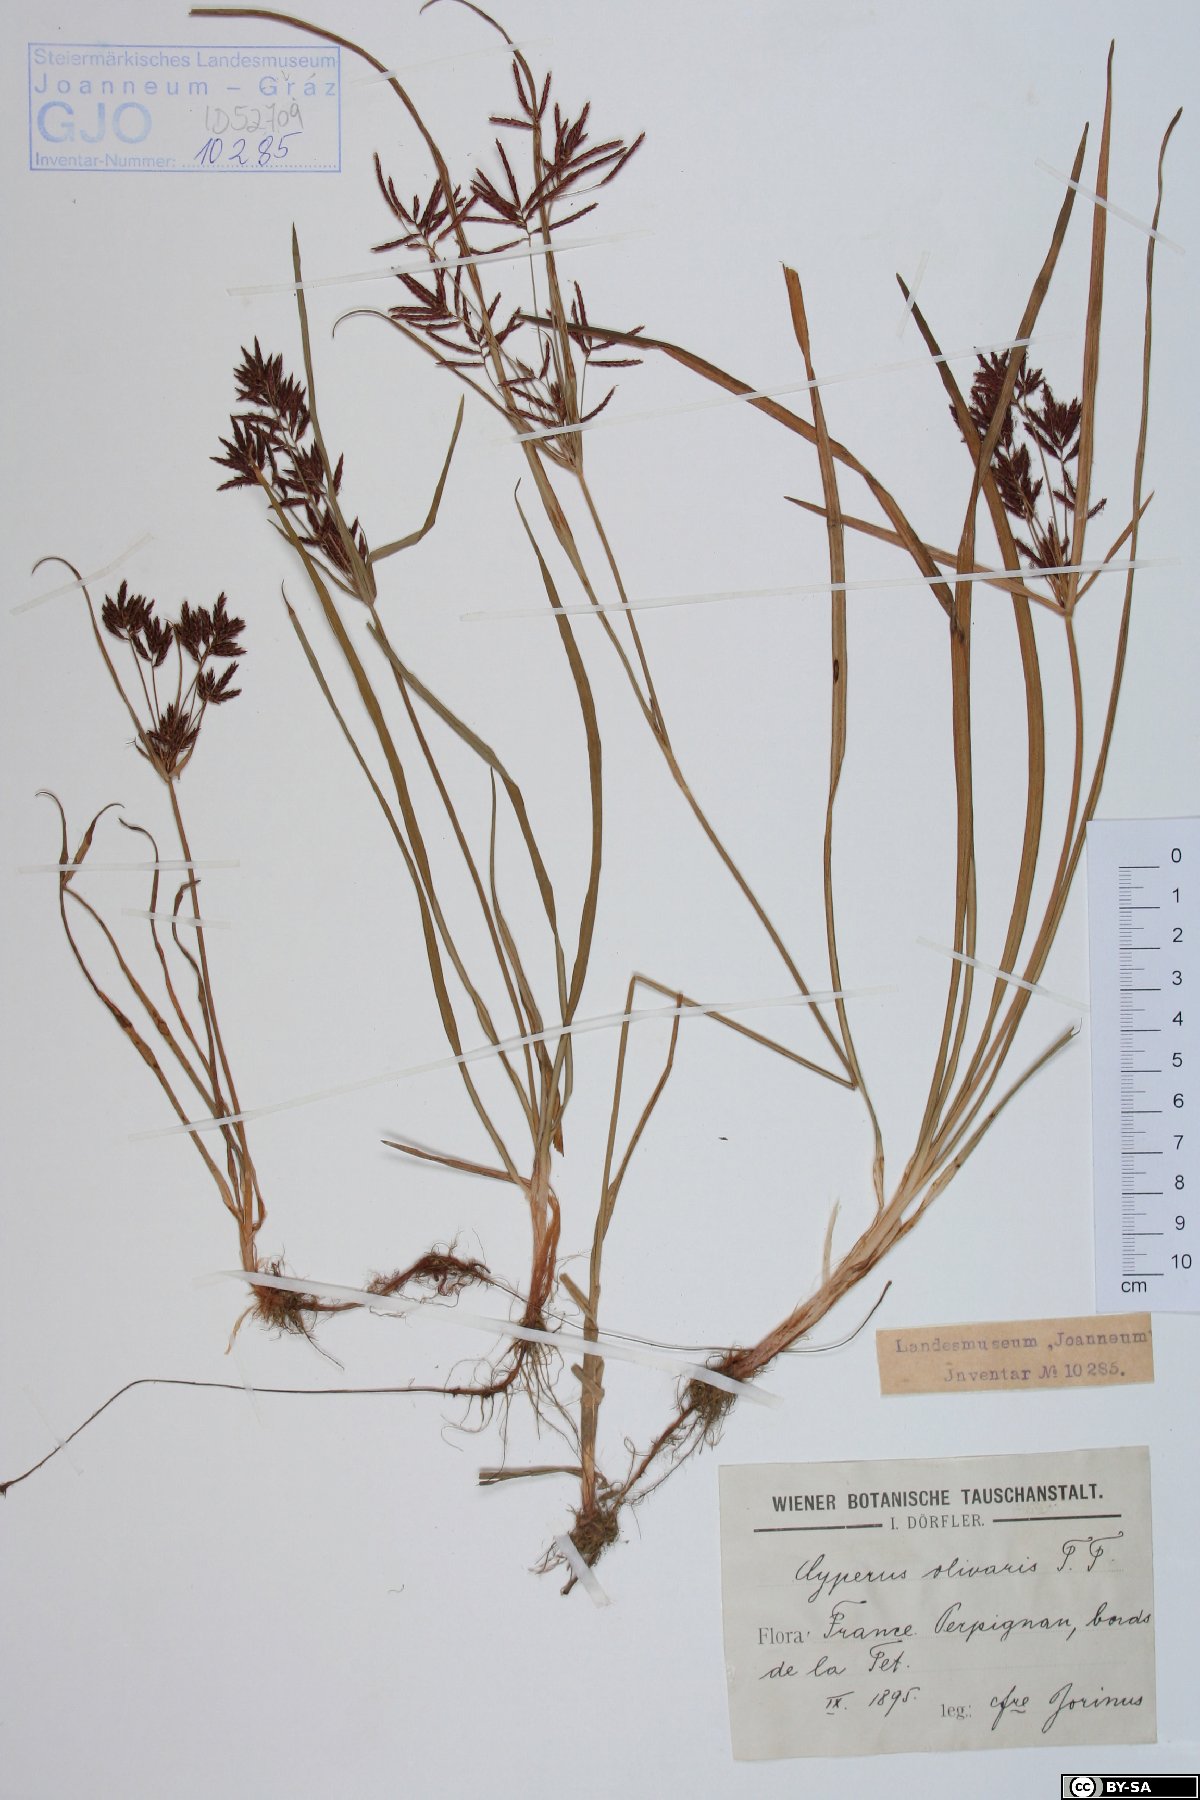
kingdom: Plantae
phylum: Tracheophyta
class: Liliopsida
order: Poales
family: Cyperaceae
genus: Cyperus
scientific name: Cyperus rotundus
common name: Nutgrass
